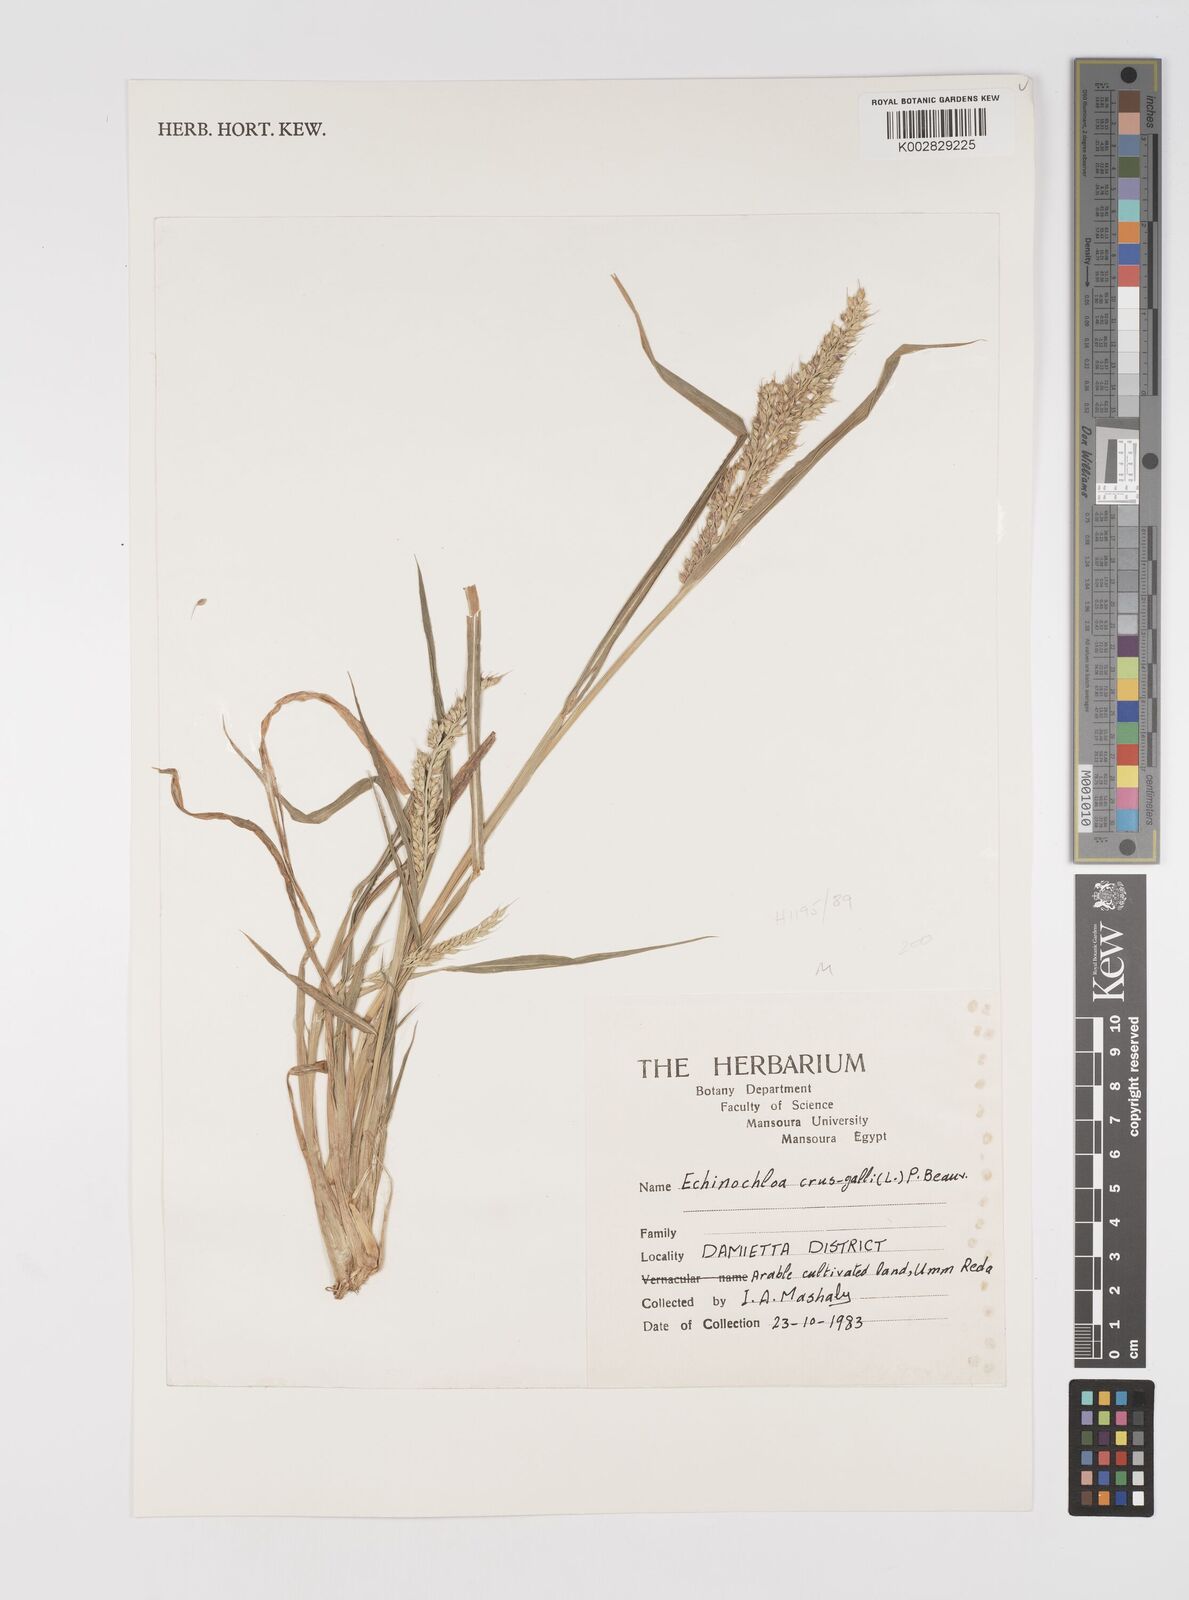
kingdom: Plantae
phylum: Tracheophyta
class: Liliopsida
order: Poales
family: Poaceae
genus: Echinochloa
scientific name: Echinochloa crus-galli
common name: Cockspur
